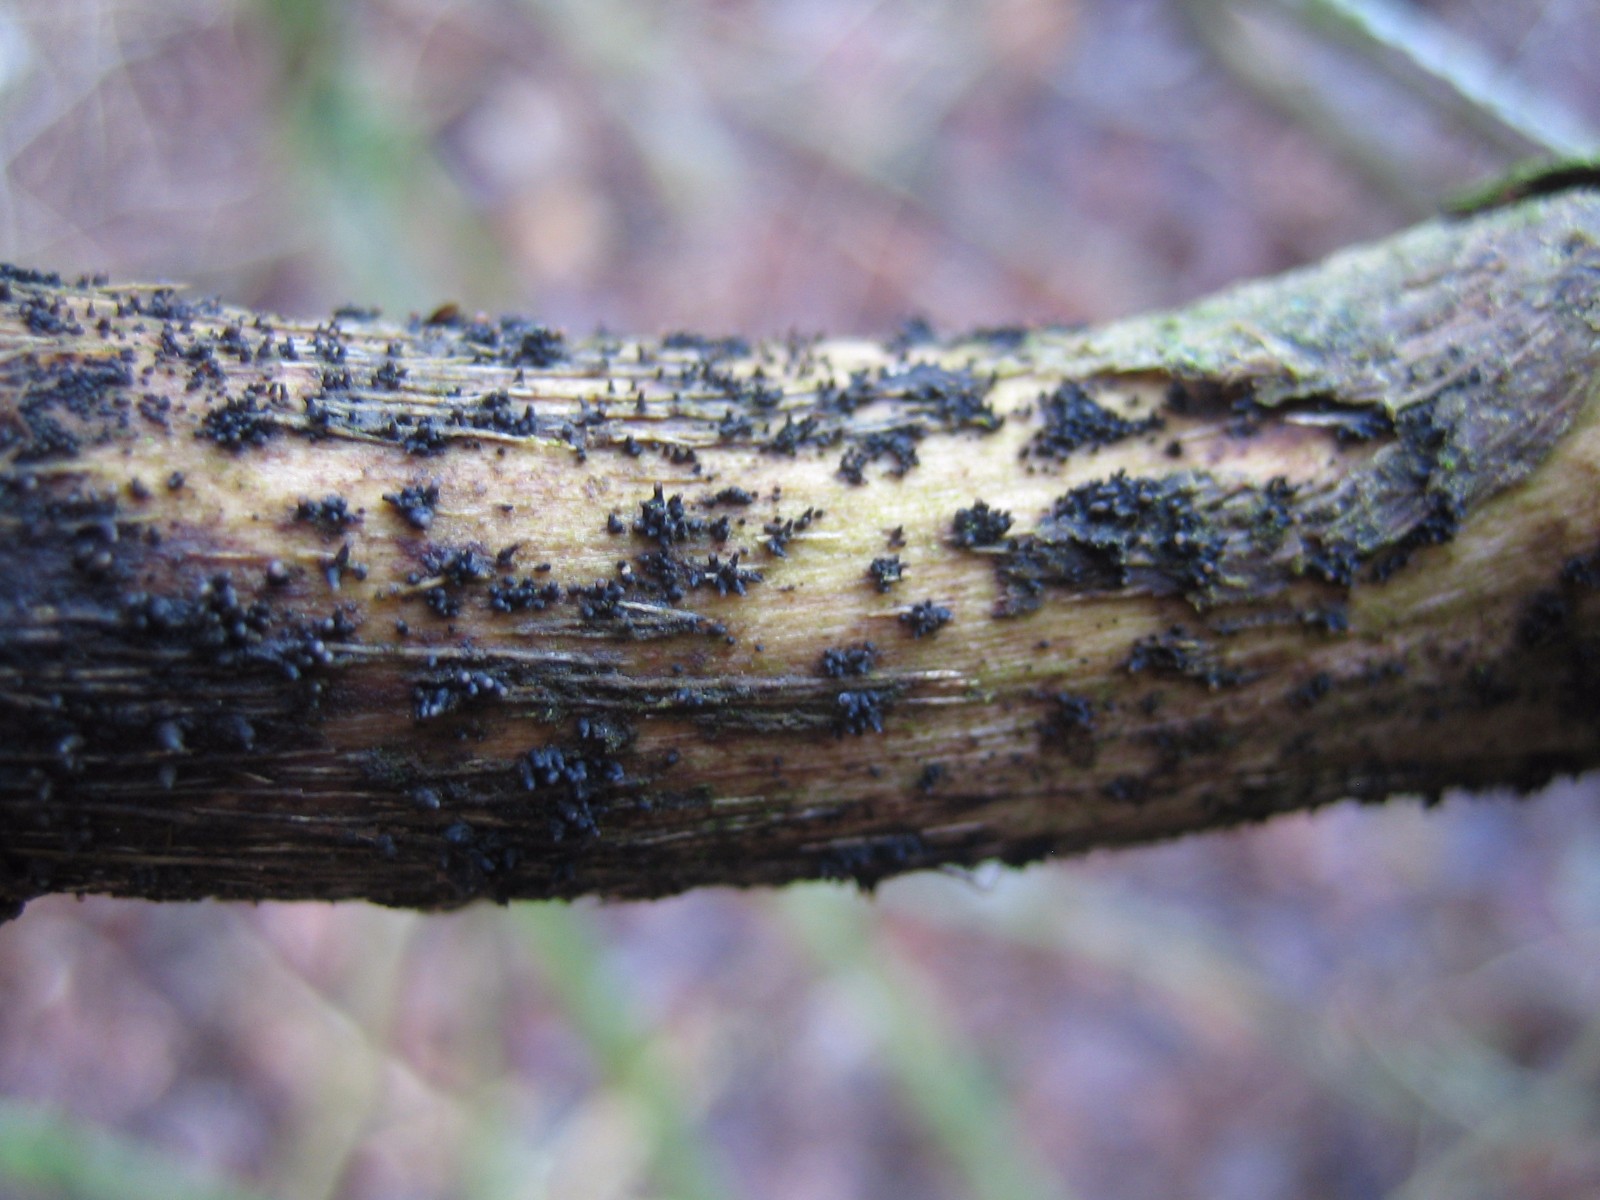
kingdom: Fungi
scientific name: Fungi
